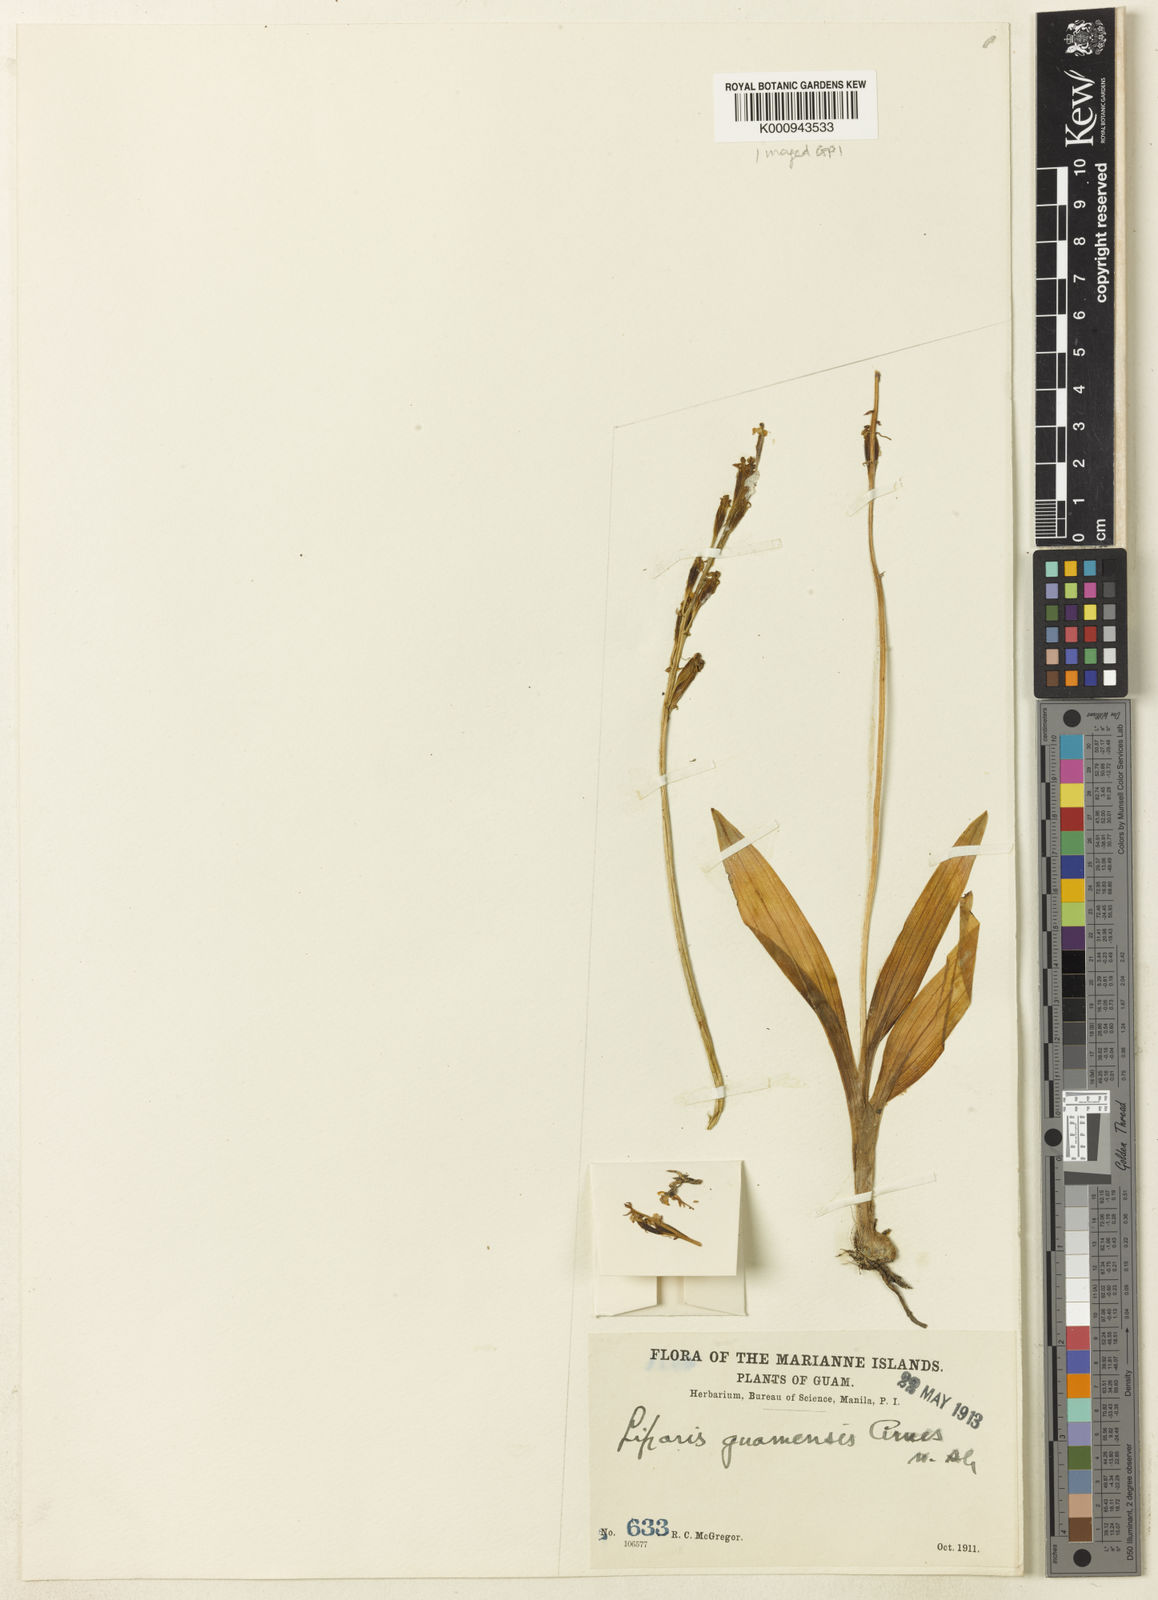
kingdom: Plantae
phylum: Tracheophyta
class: Liliopsida
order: Asparagales
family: Orchidaceae
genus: Liparis
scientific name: Liparis odorata
